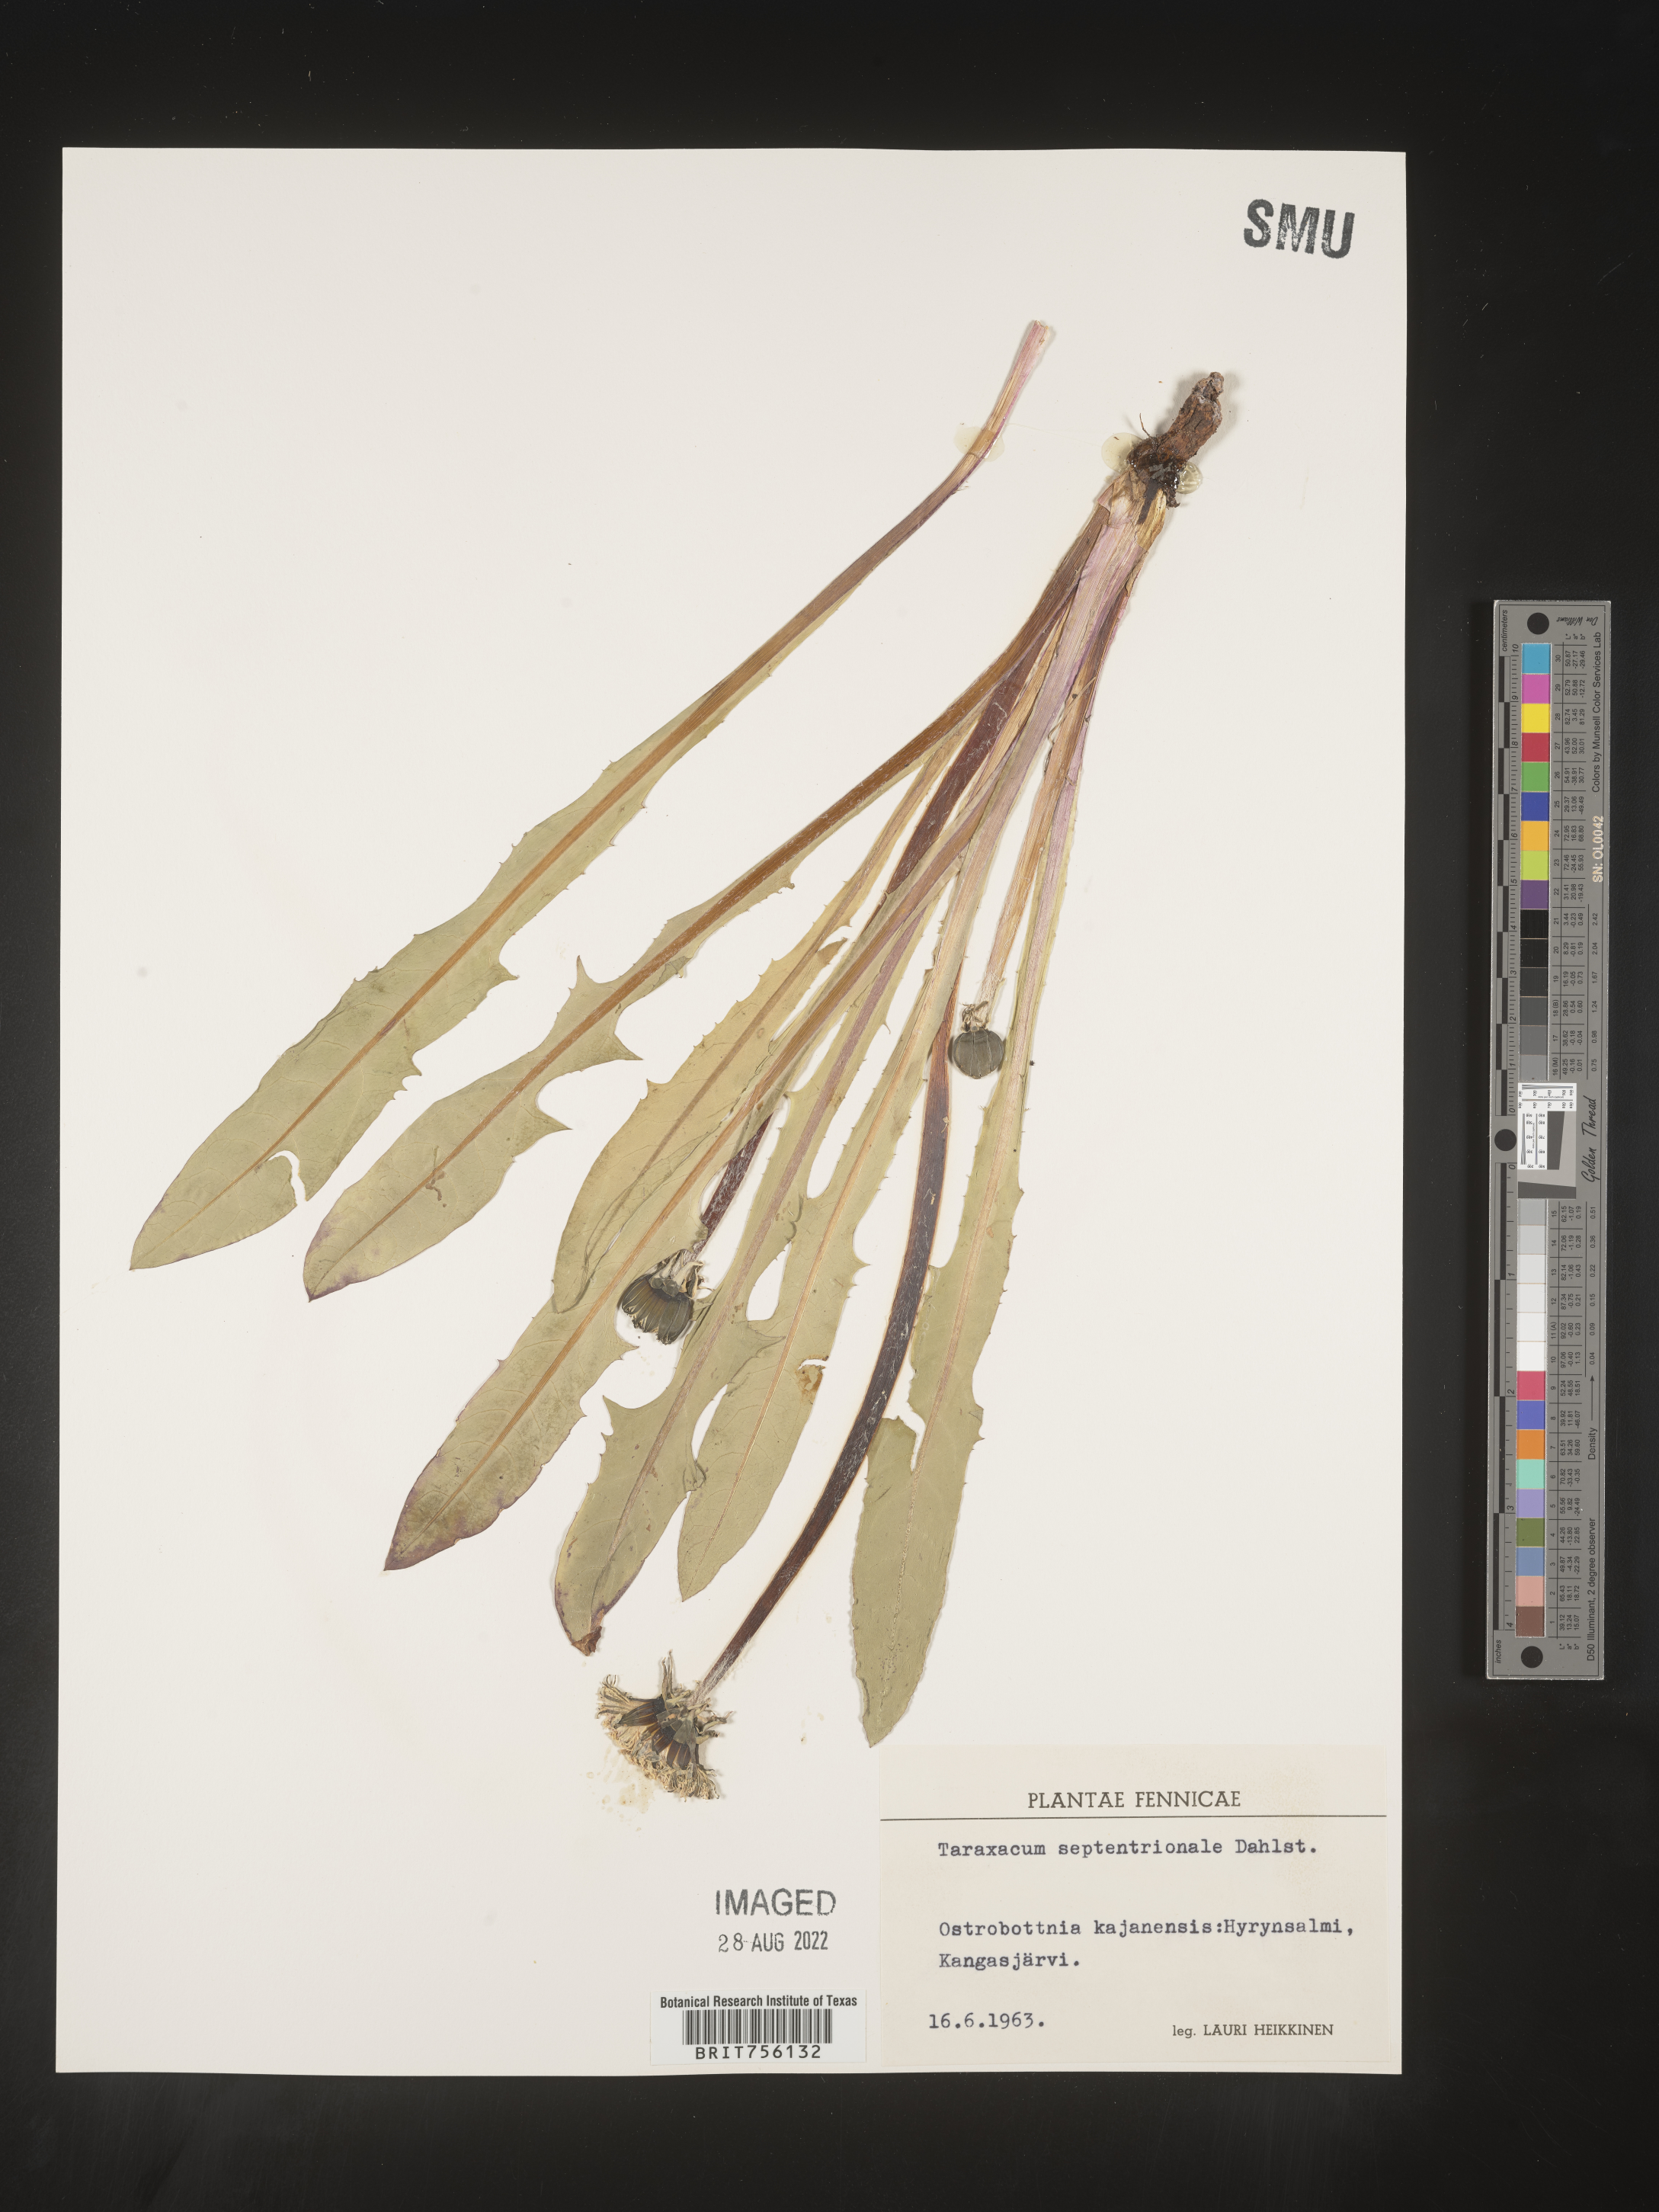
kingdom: Plantae
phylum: Tracheophyta
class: Magnoliopsida
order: Asterales
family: Asteraceae
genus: Taraxacum
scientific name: Taraxacum
